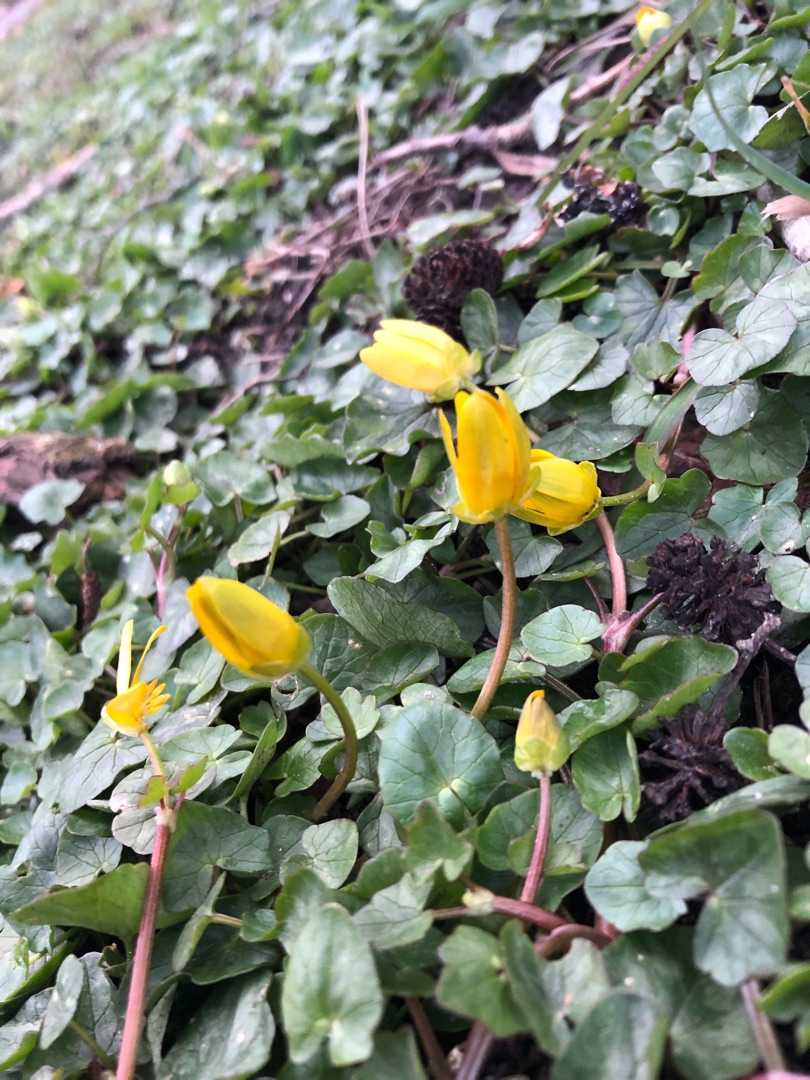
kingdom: Plantae
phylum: Tracheophyta
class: Magnoliopsida
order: Ranunculales
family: Ranunculaceae
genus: Ficaria
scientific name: Ficaria verna
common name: Vorterod
